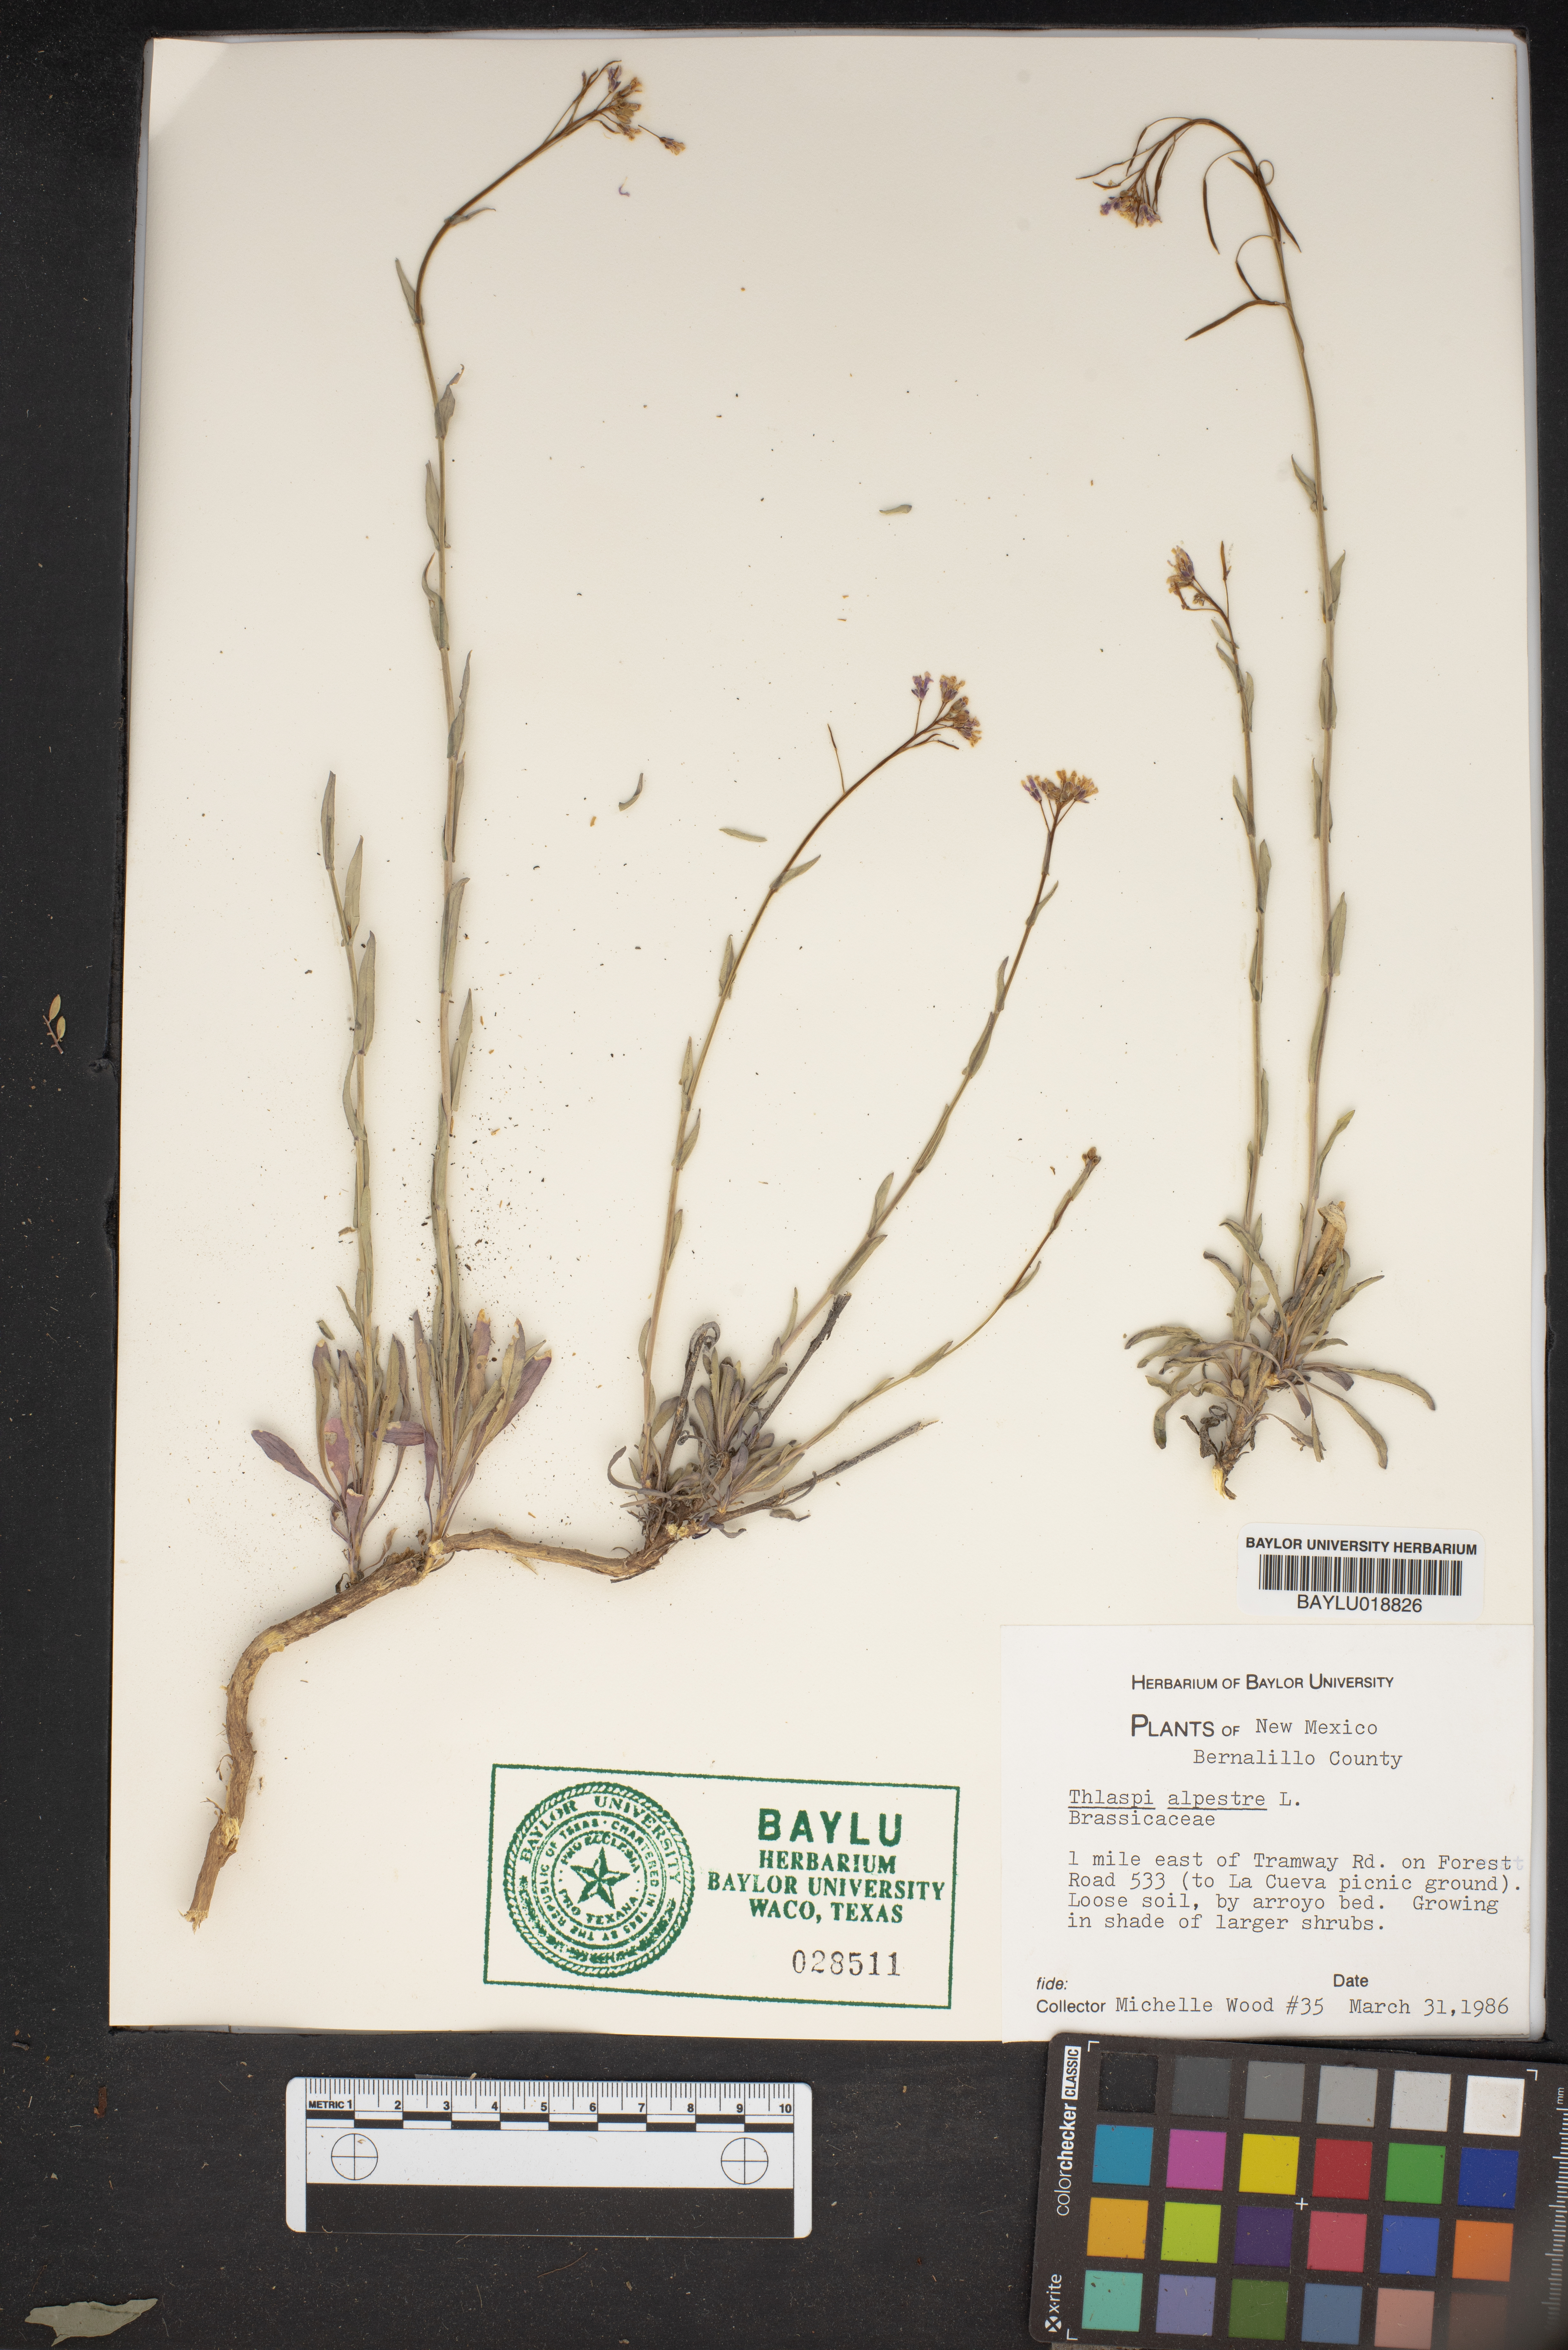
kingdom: Plantae
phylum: Tracheophyta
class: Magnoliopsida
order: Brassicales
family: Brassicaceae
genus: Noccaea
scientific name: Noccaea alpestris
